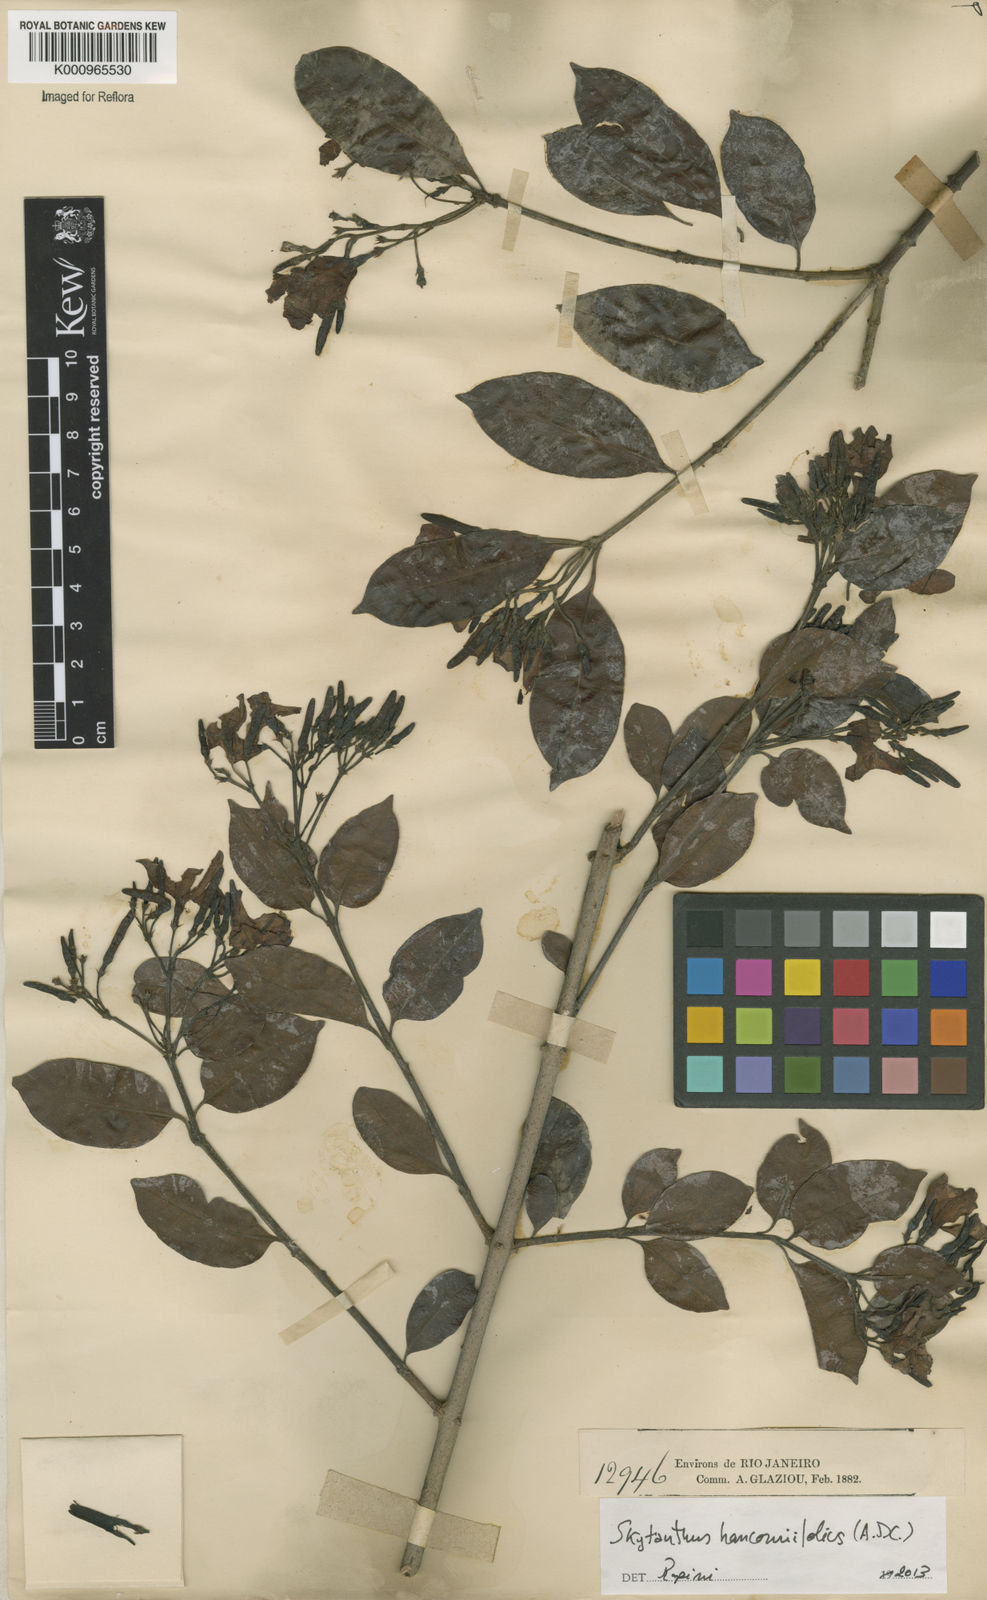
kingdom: Plantae
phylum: Tracheophyta
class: Magnoliopsida
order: Gentianales
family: Apocynaceae
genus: Skytanthus
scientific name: Skytanthus hancorniifolius
